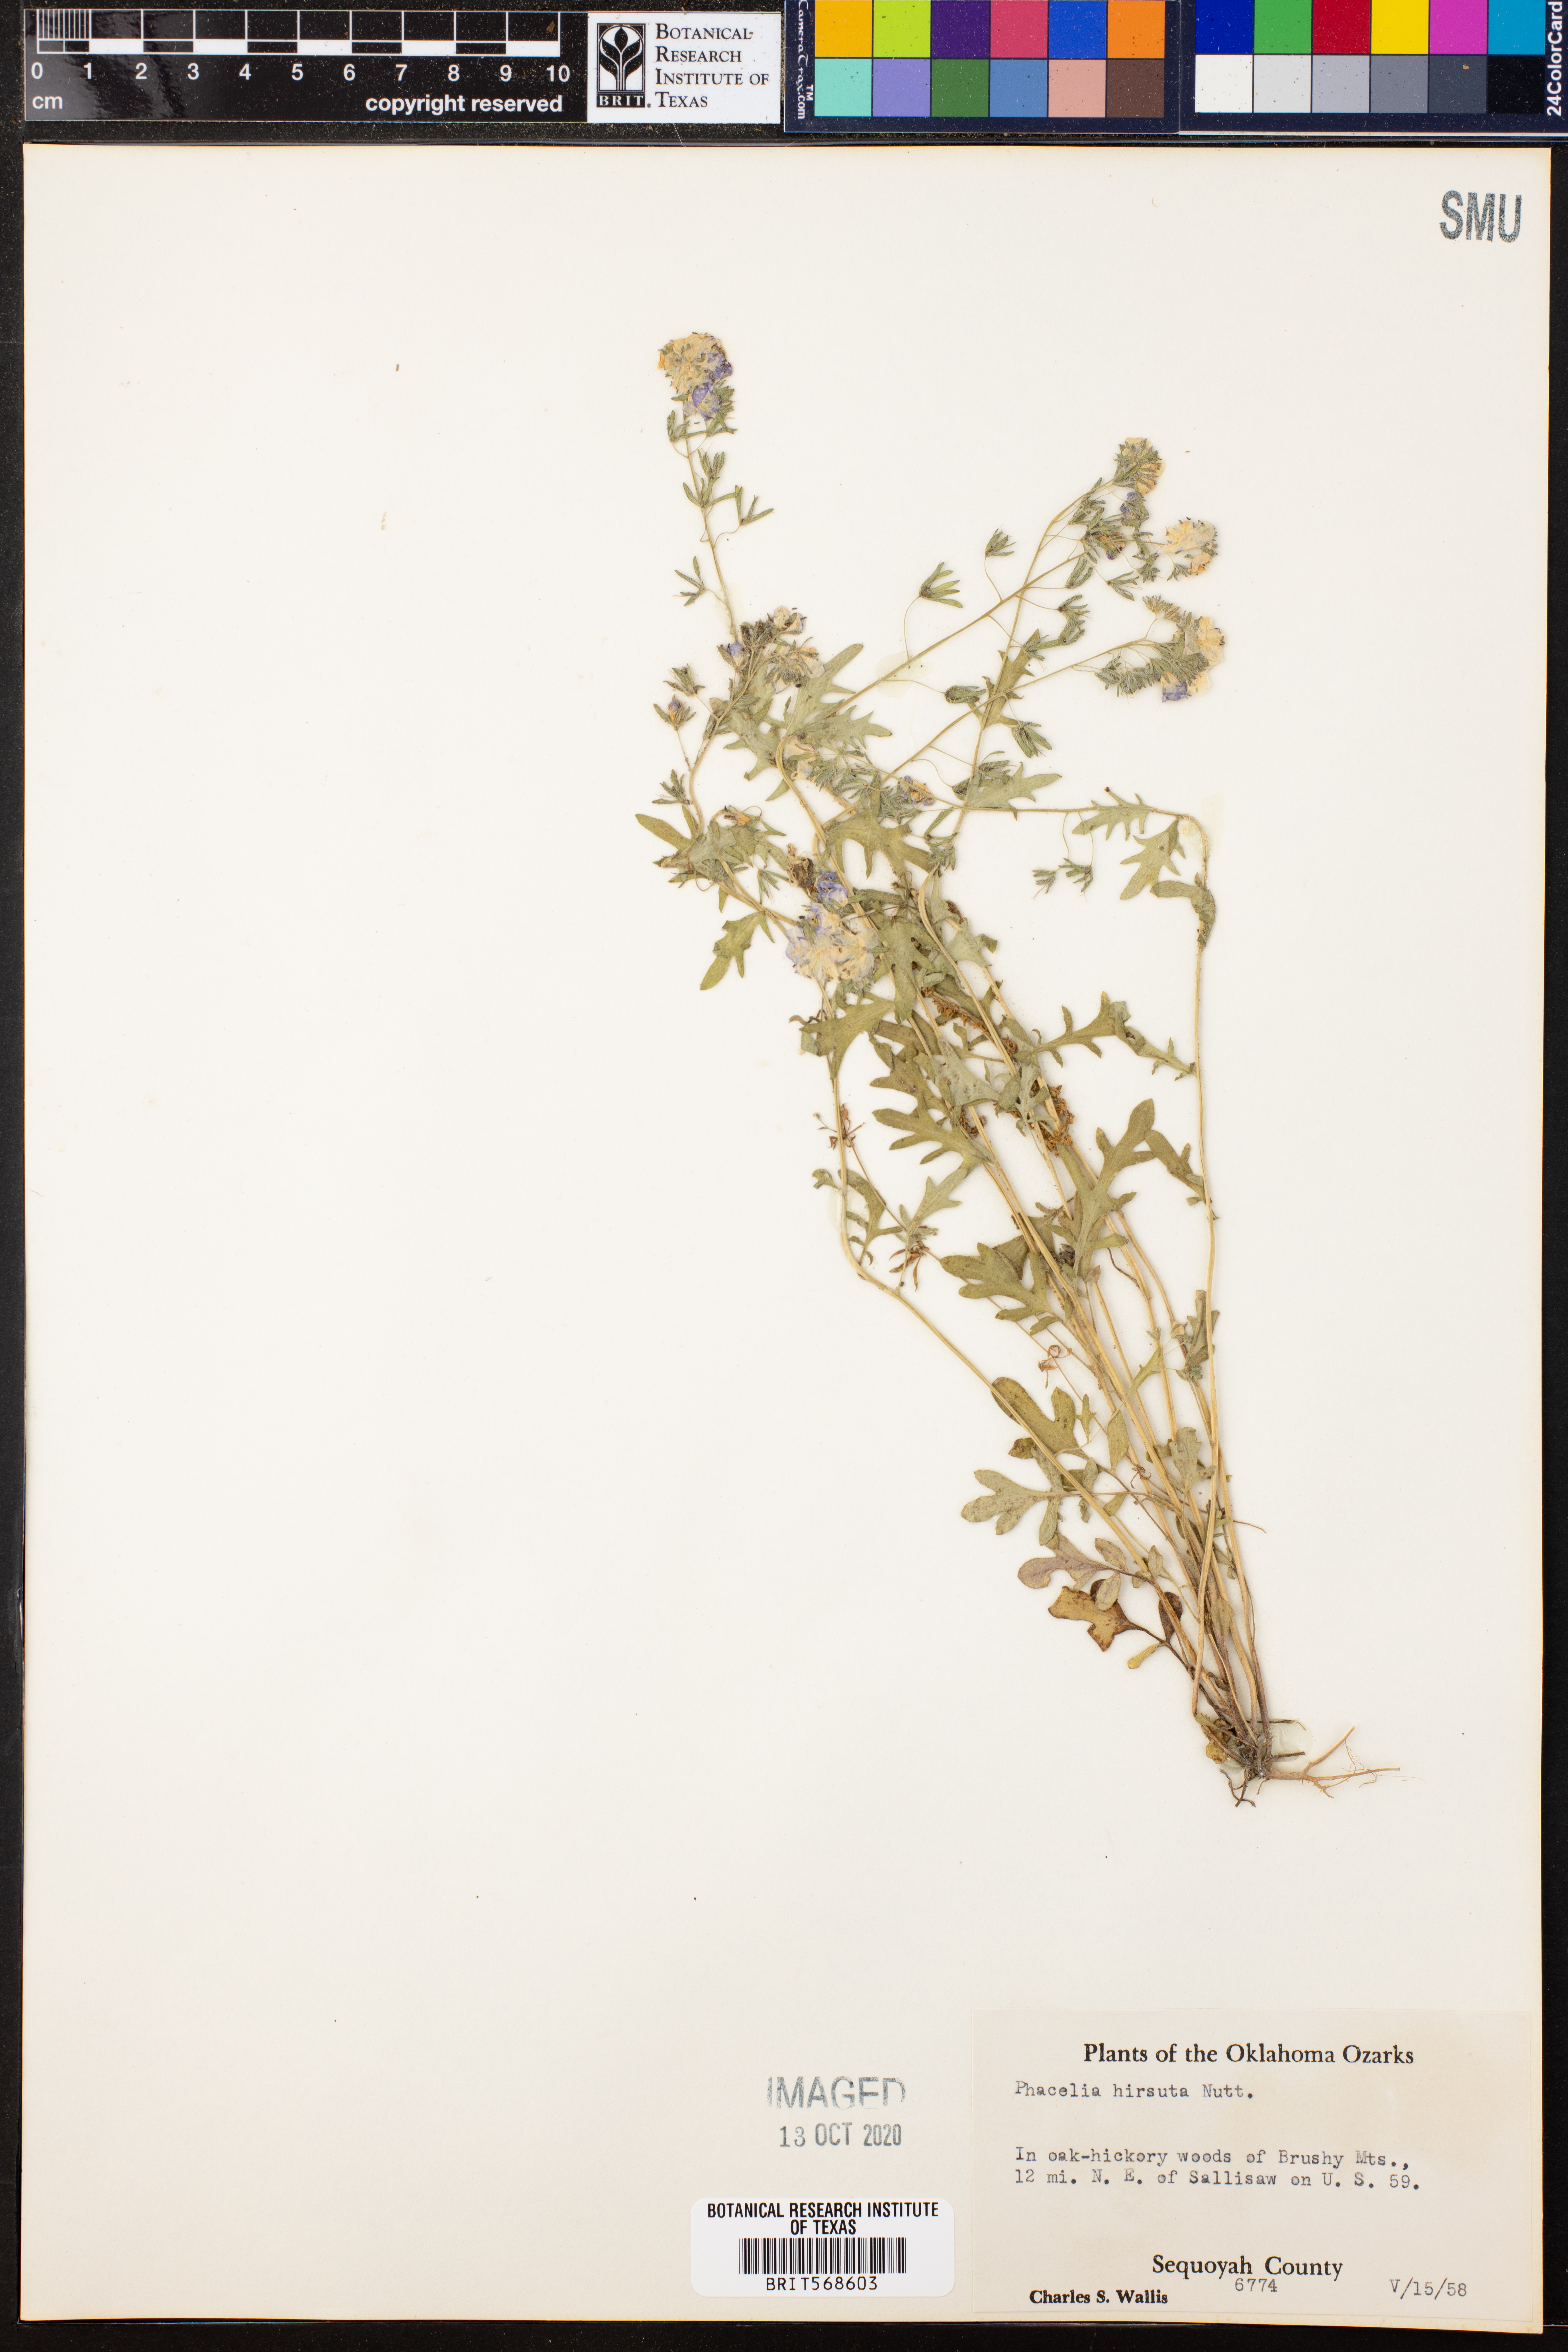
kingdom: Plantae
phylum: Tracheophyta
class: Magnoliopsida
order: Boraginales
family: Hydrophyllaceae
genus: Phacelia
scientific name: Phacelia hirsuta
